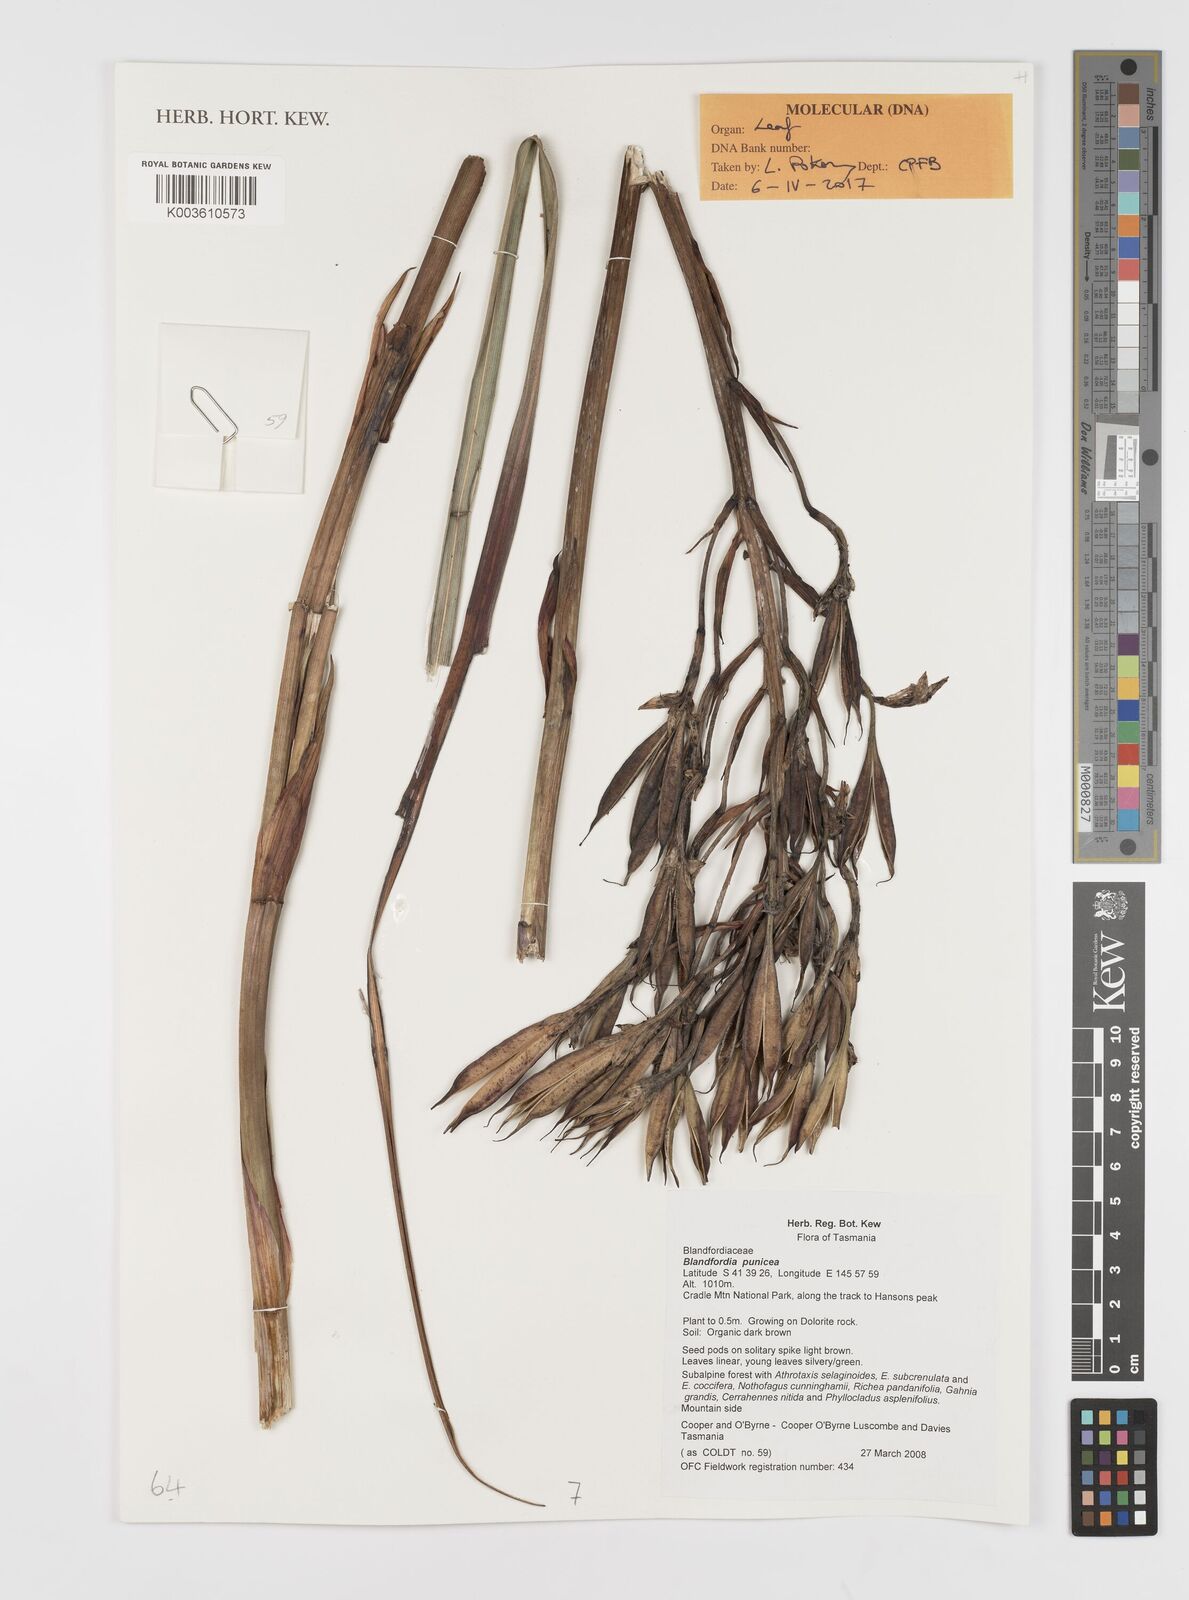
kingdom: Plantae
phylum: Tracheophyta
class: Liliopsida
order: Asparagales
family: Blandfordiaceae
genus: Blandfordia
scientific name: Blandfordia punicea
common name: Tasmanian christmas-bell
